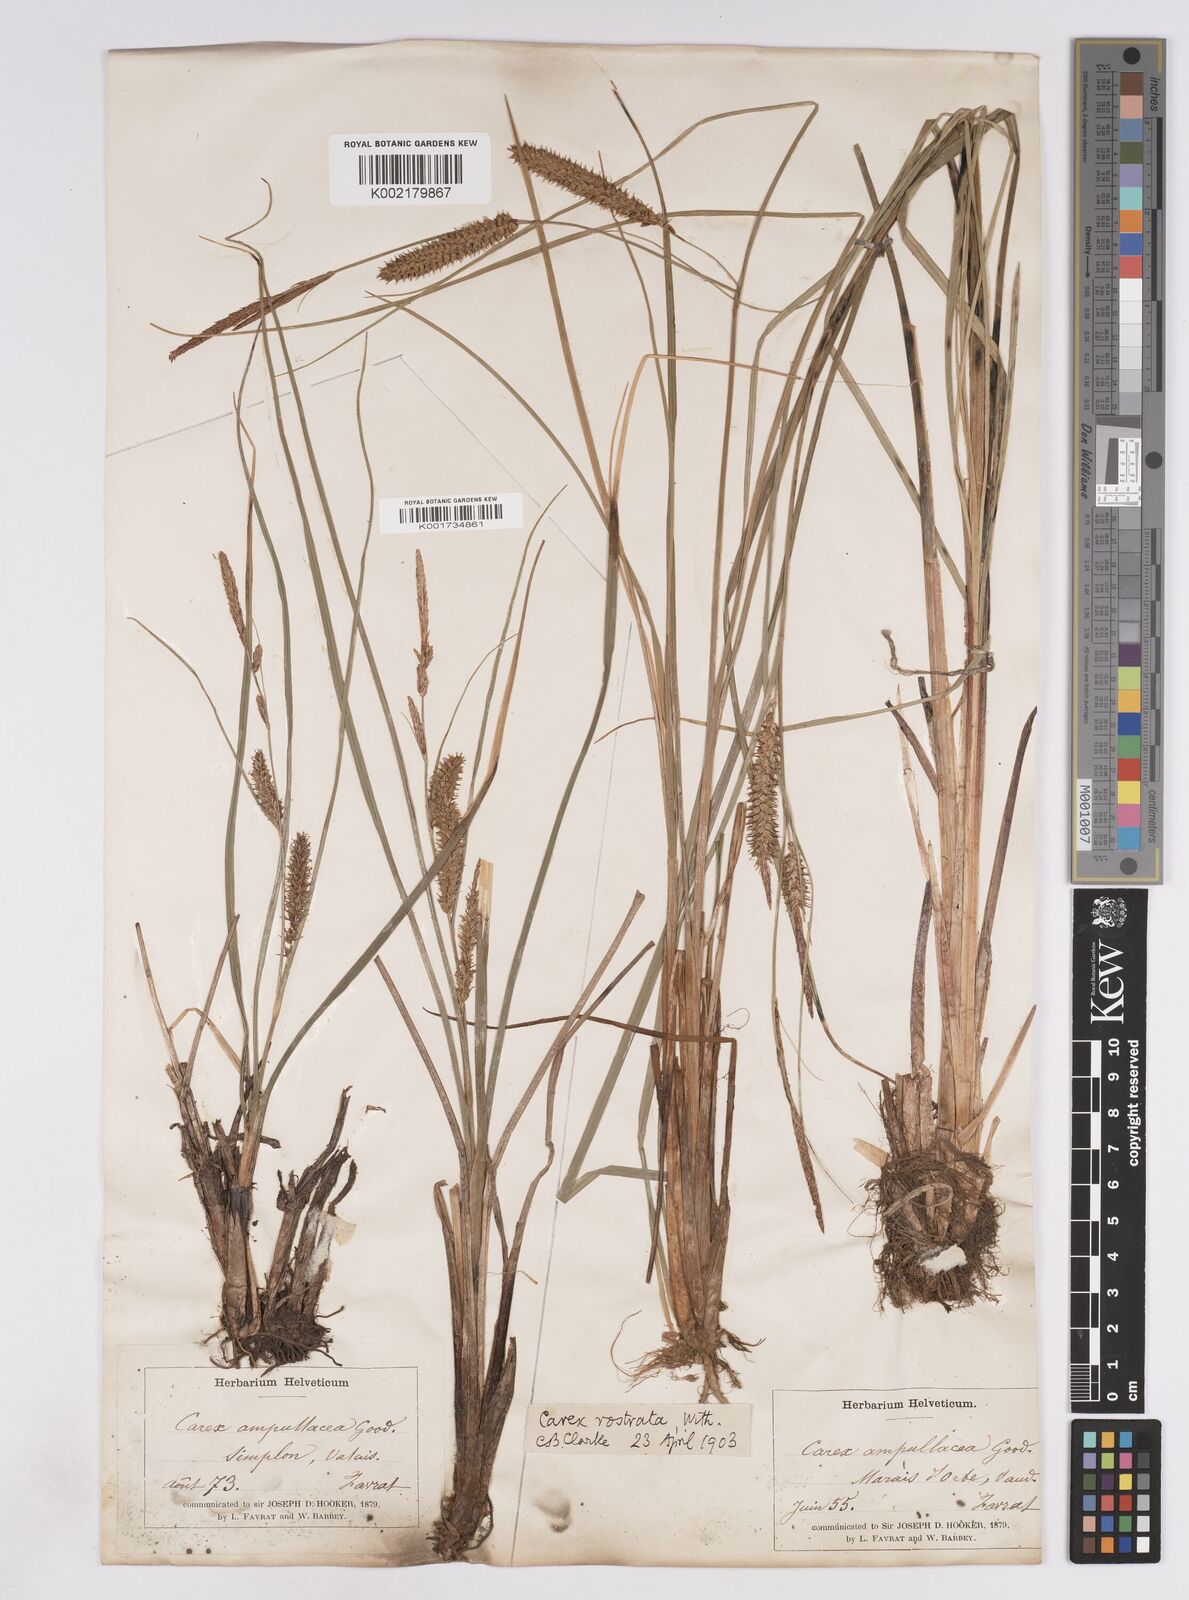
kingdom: Plantae
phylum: Tracheophyta
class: Liliopsida
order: Poales
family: Cyperaceae
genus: Carex
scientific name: Carex rostrata
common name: Bottle sedge
